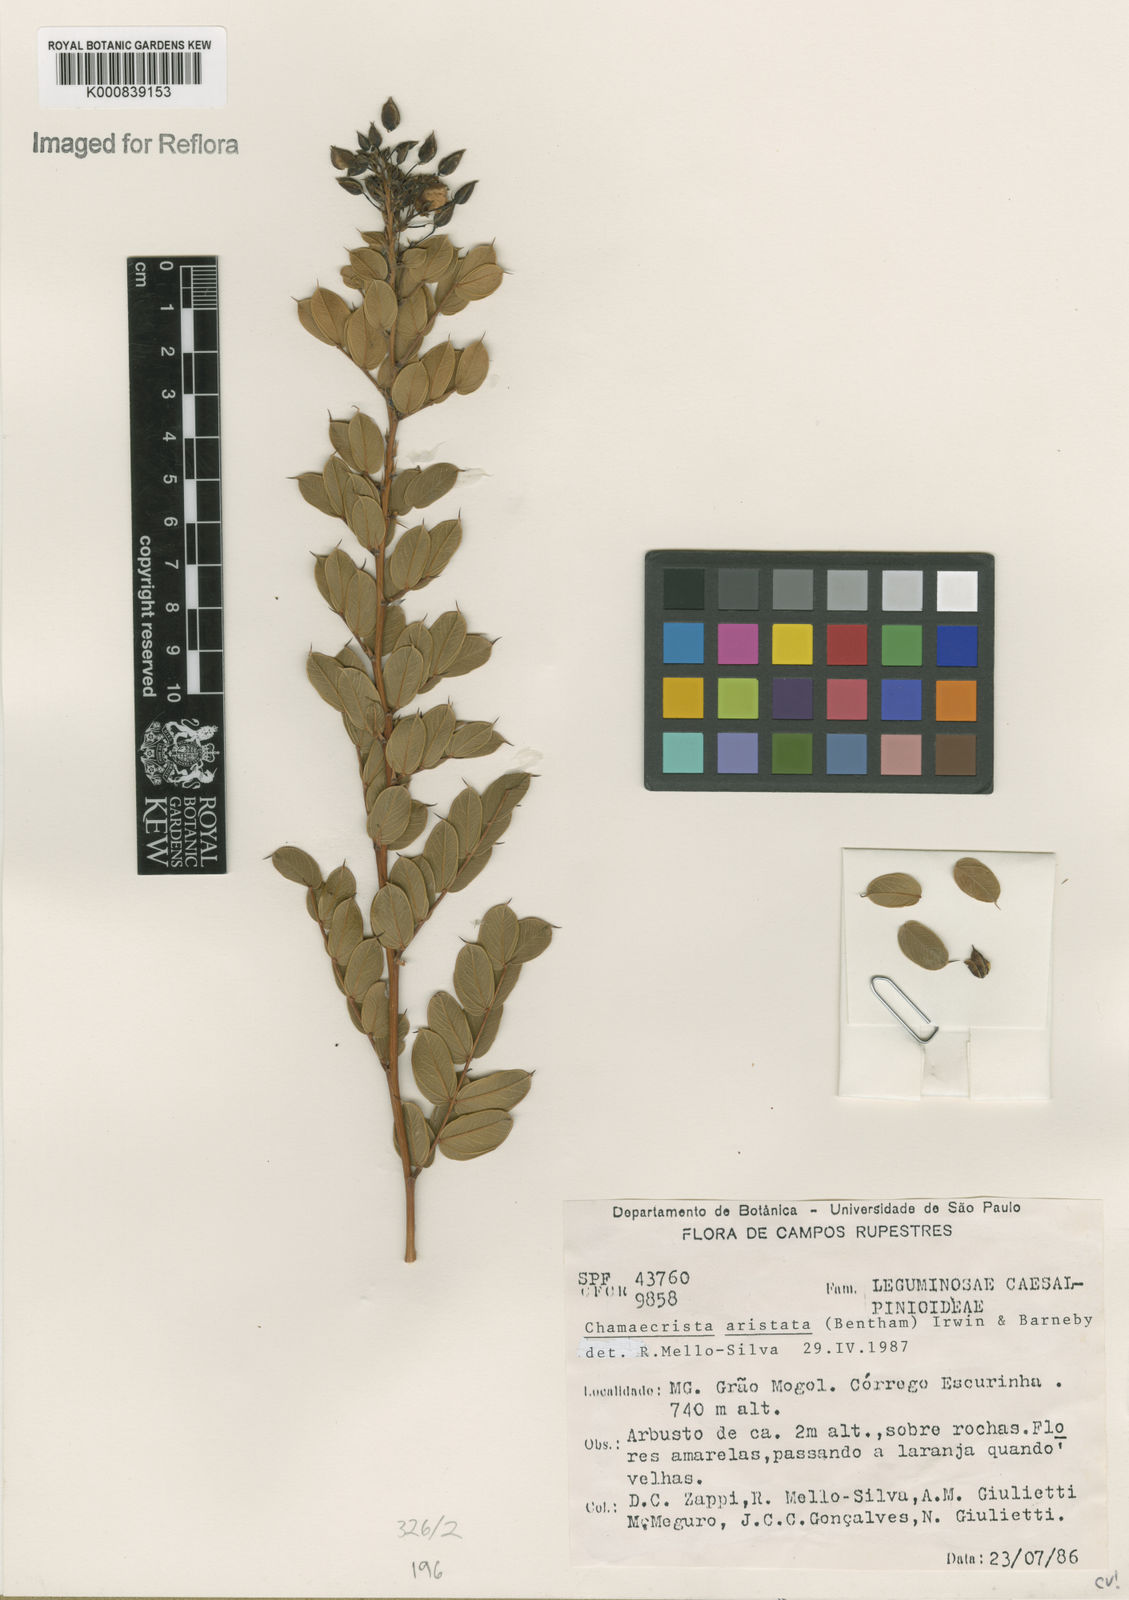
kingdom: Plantae
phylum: Tracheophyta
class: Magnoliopsida
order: Fabales
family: Fabaceae
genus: Chamaecrista
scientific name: Chamaecrista aristata
